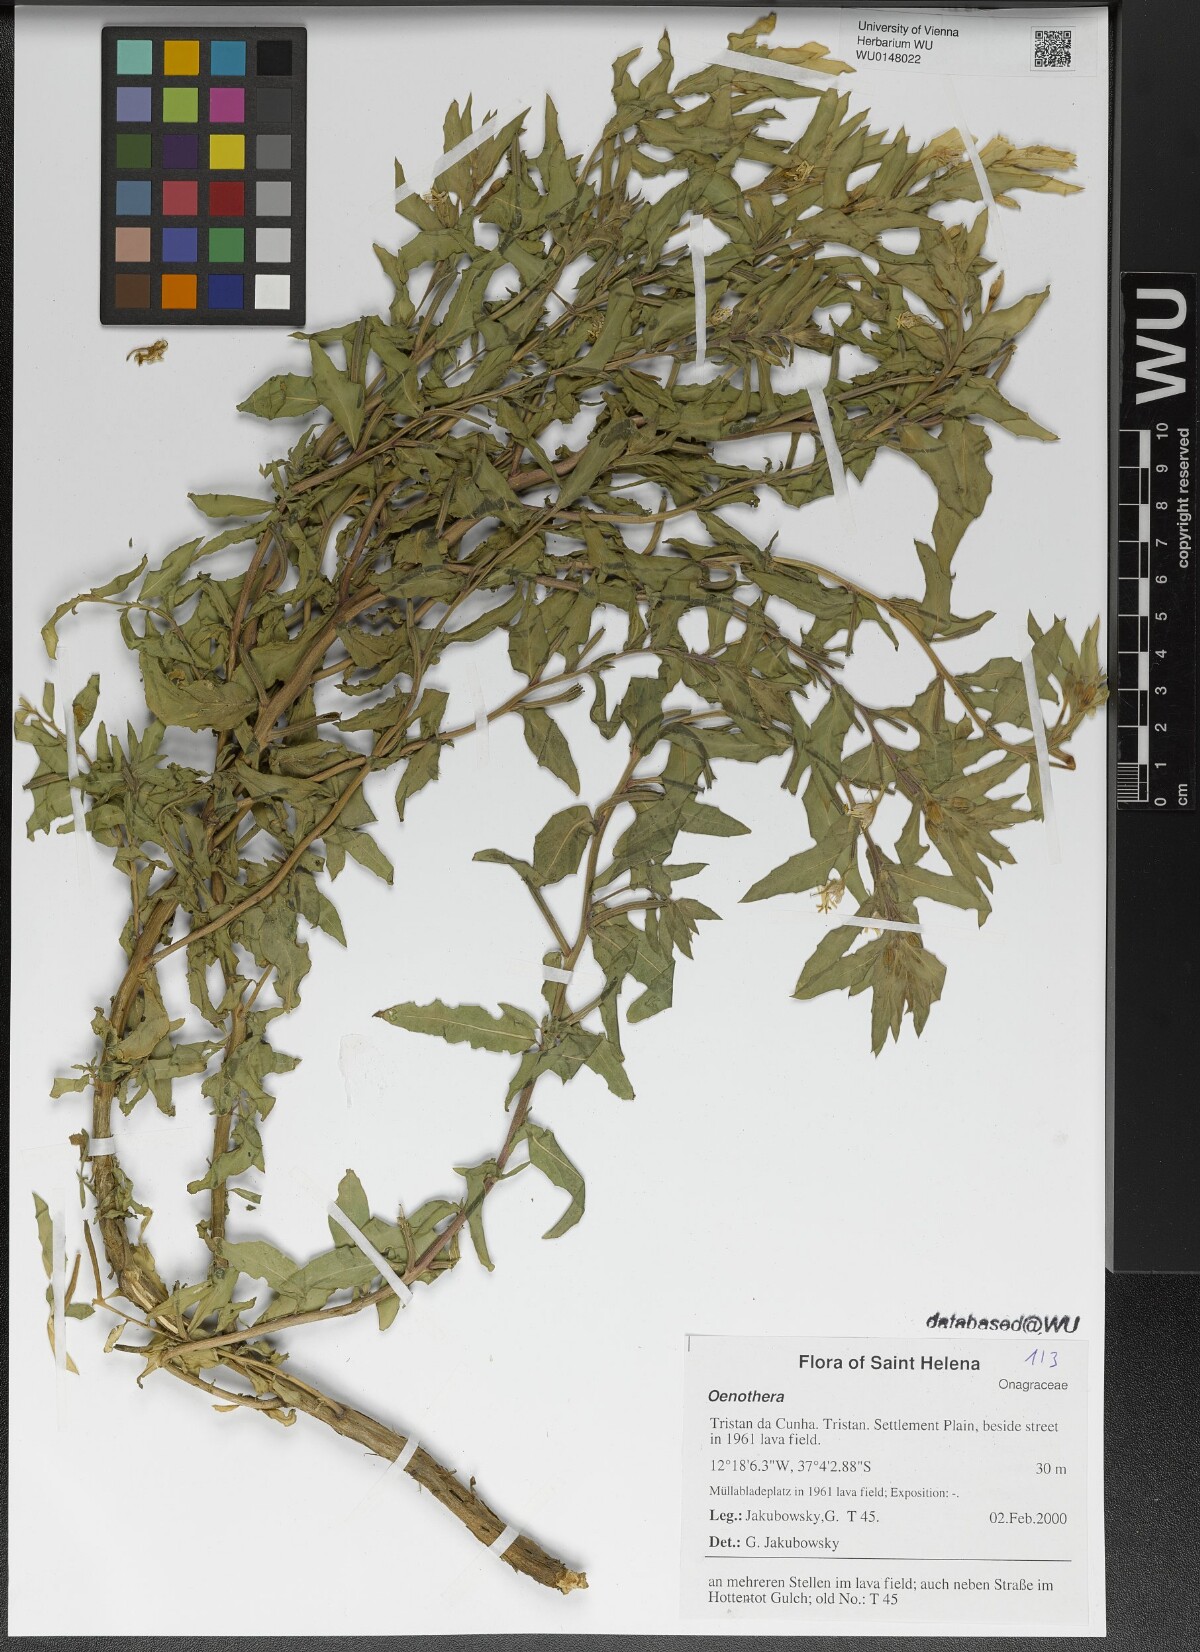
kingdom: Plantae
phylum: Tracheophyta
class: Magnoliopsida
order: Myrtales
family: Onagraceae
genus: Oenothera
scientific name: Oenothera
